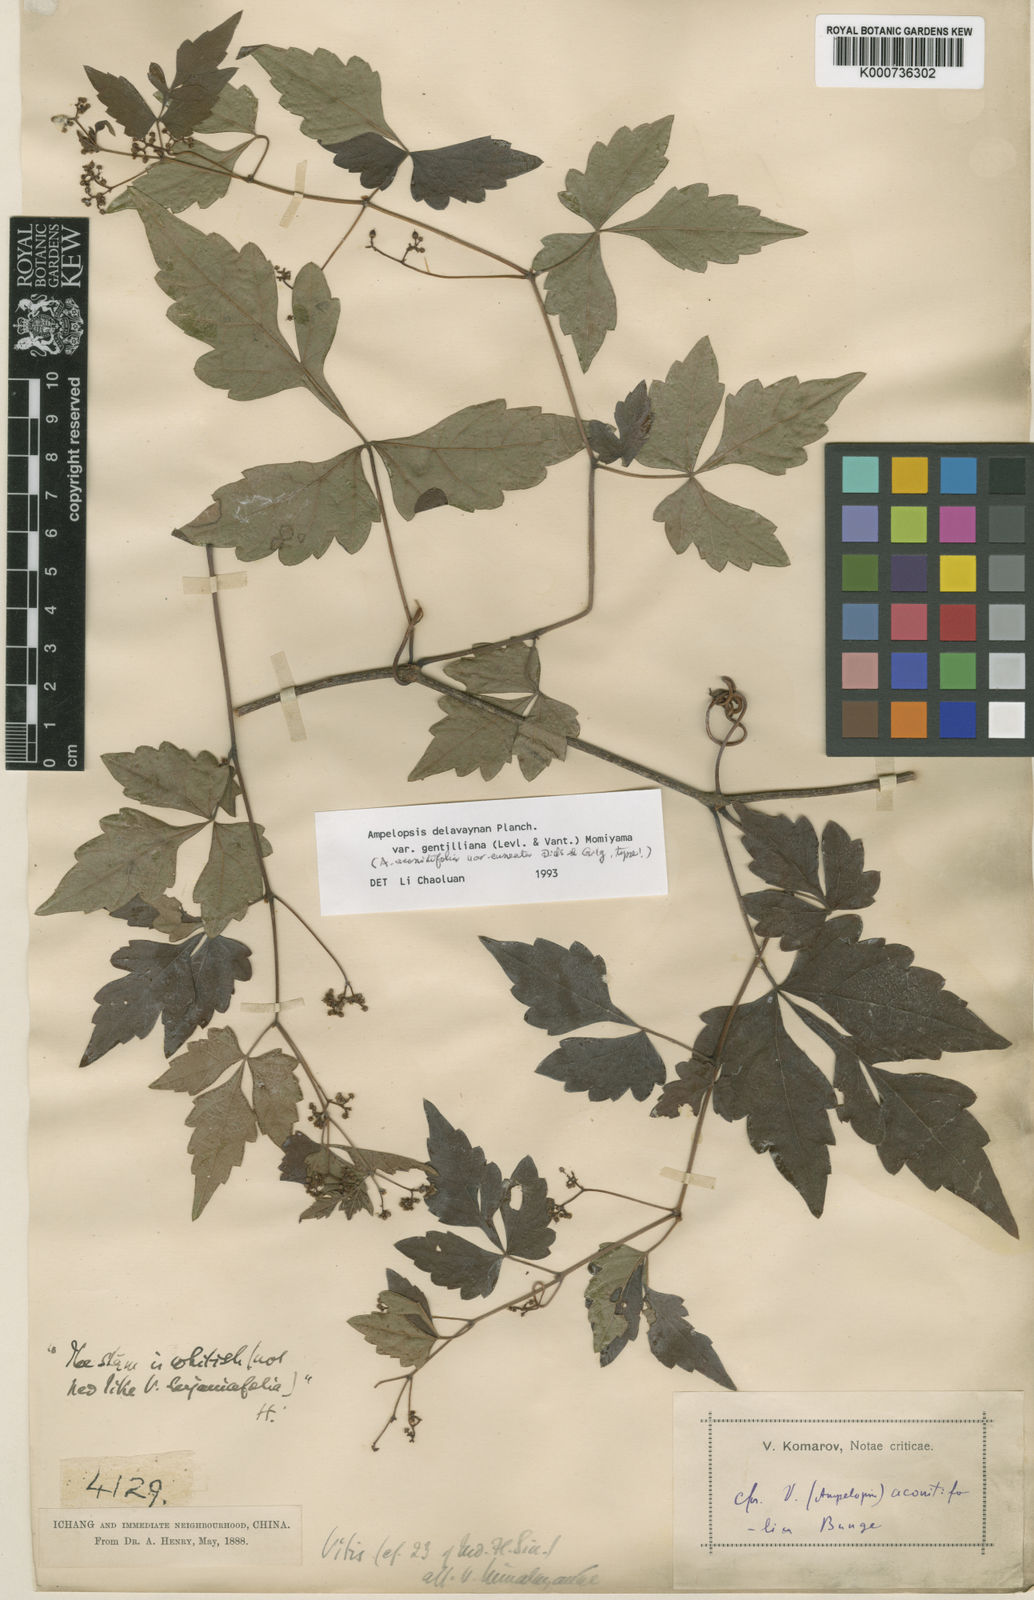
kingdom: Plantae
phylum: Tracheophyta
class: Magnoliopsida
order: Vitales
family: Vitaceae
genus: Ampelopsis
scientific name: Ampelopsis delavayana
